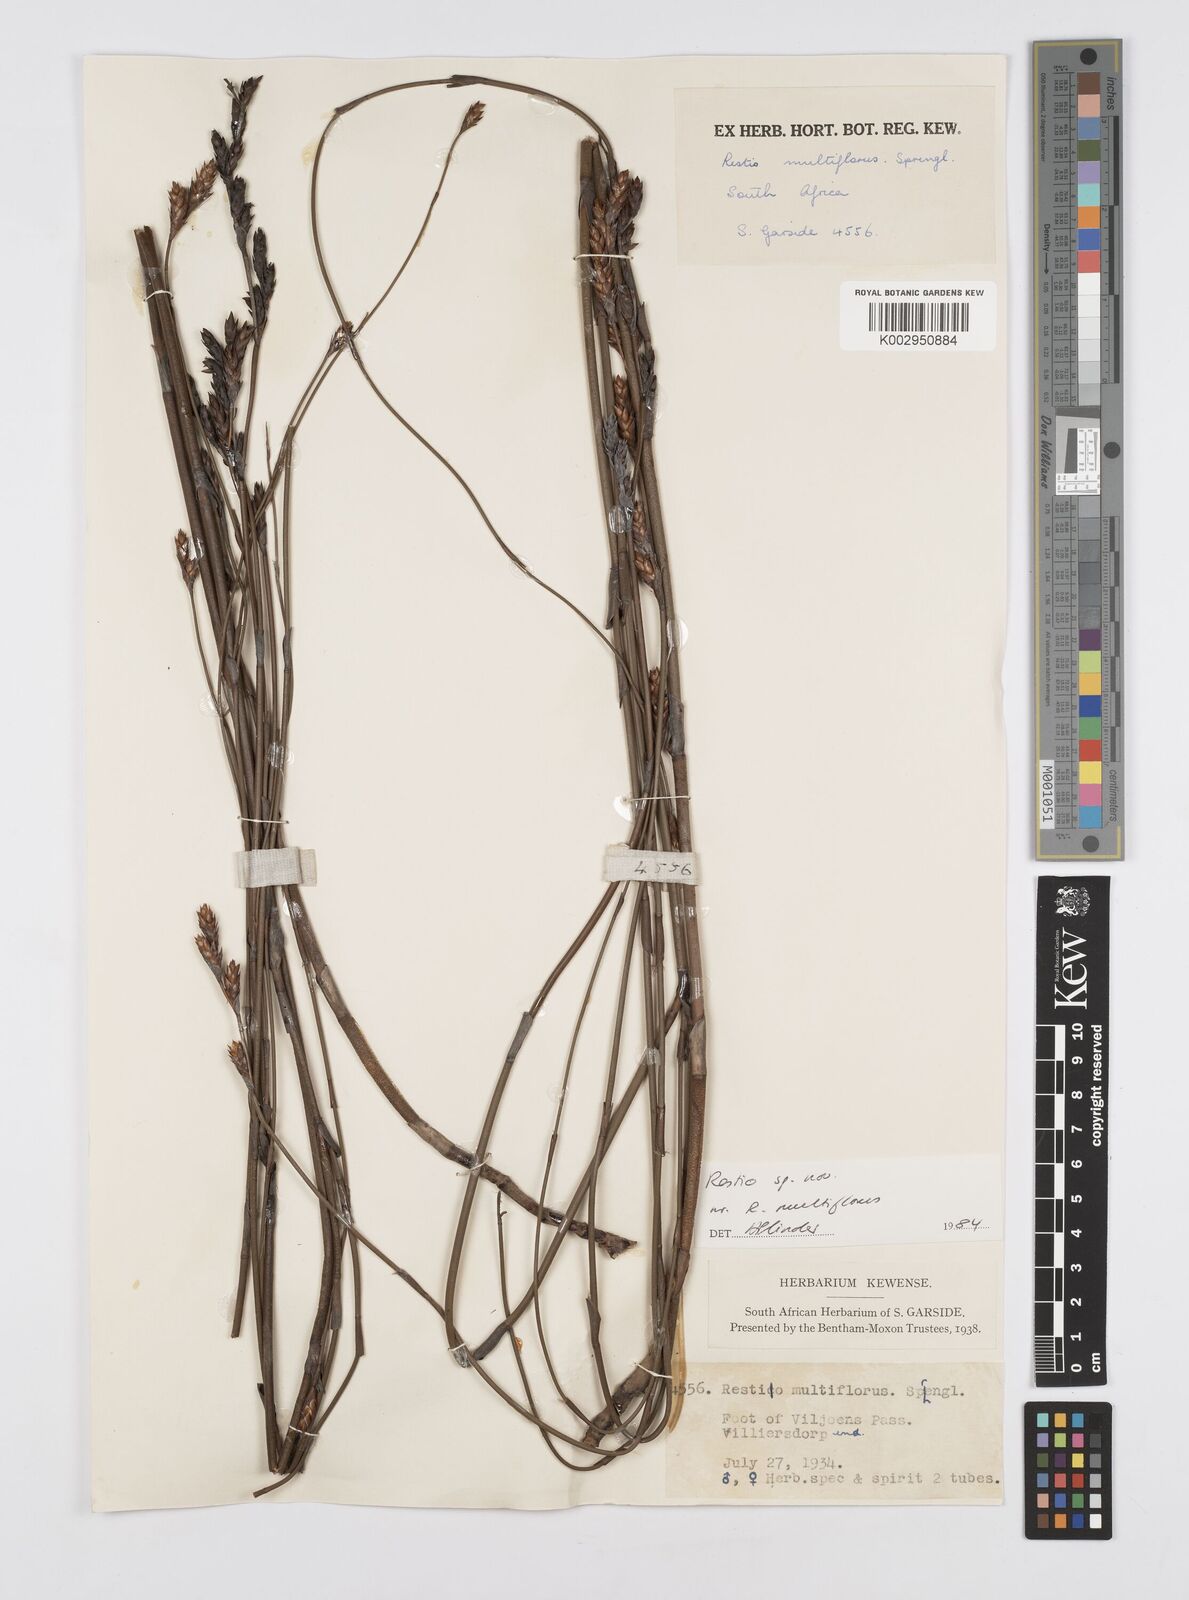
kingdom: Plantae
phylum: Tracheophyta
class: Liliopsida
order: Poales
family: Restionaceae
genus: Restio
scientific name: Restio degenerans
